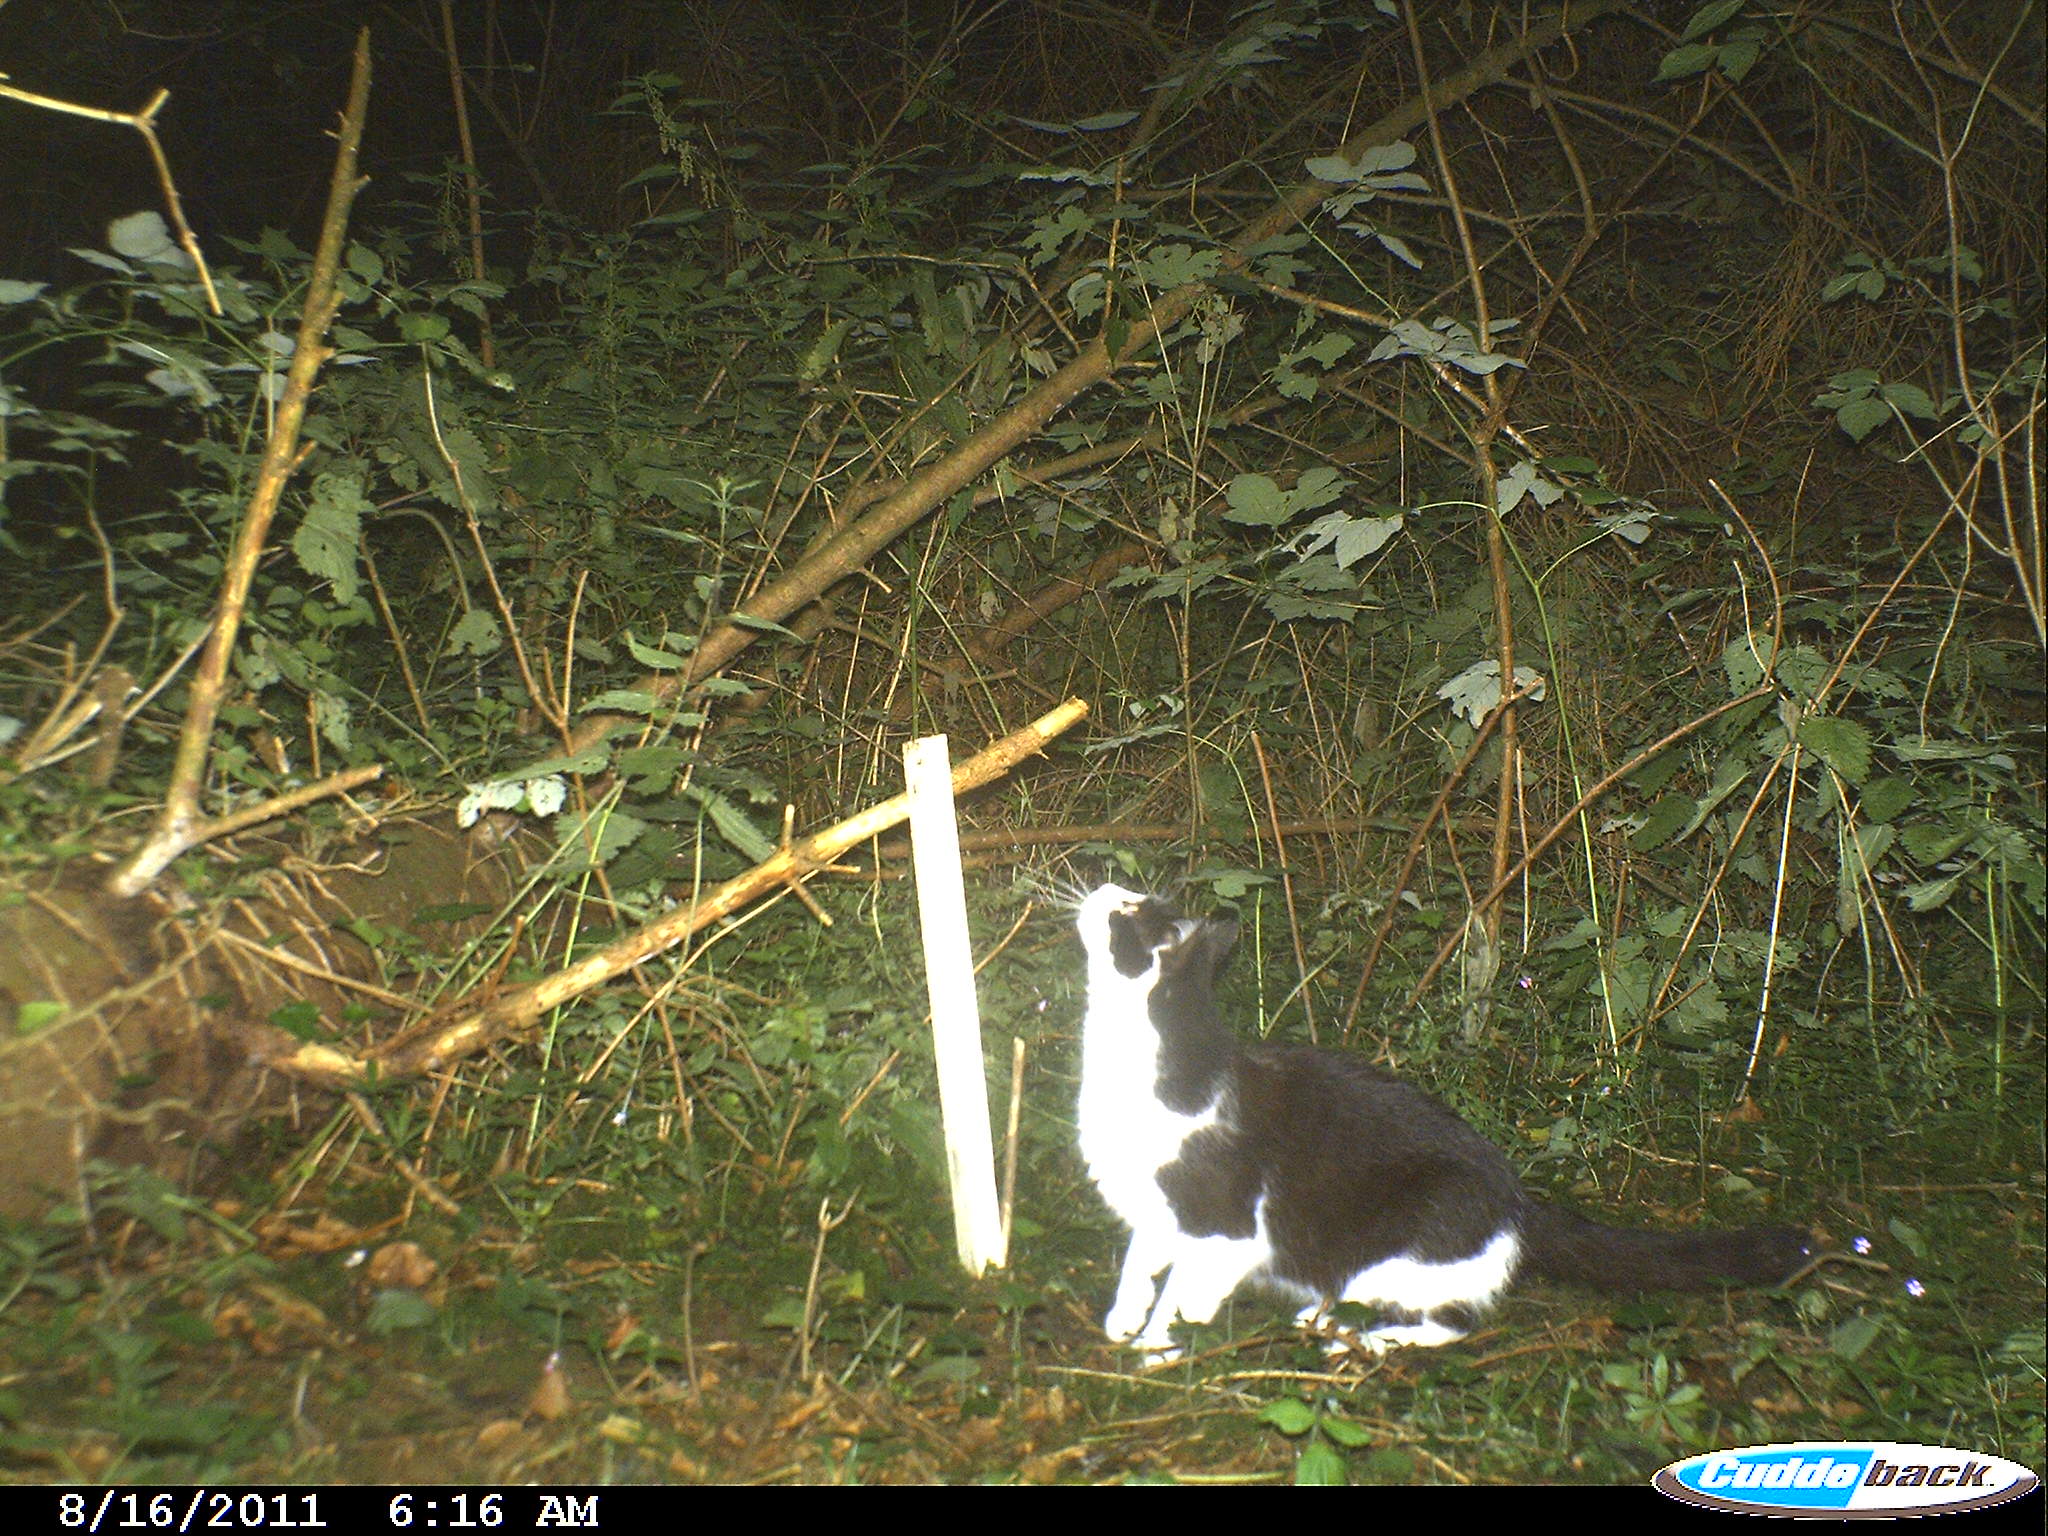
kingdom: Animalia
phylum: Chordata
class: Mammalia
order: Carnivora
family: Felidae
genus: Felis
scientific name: Felis catus
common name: Domestic cat
